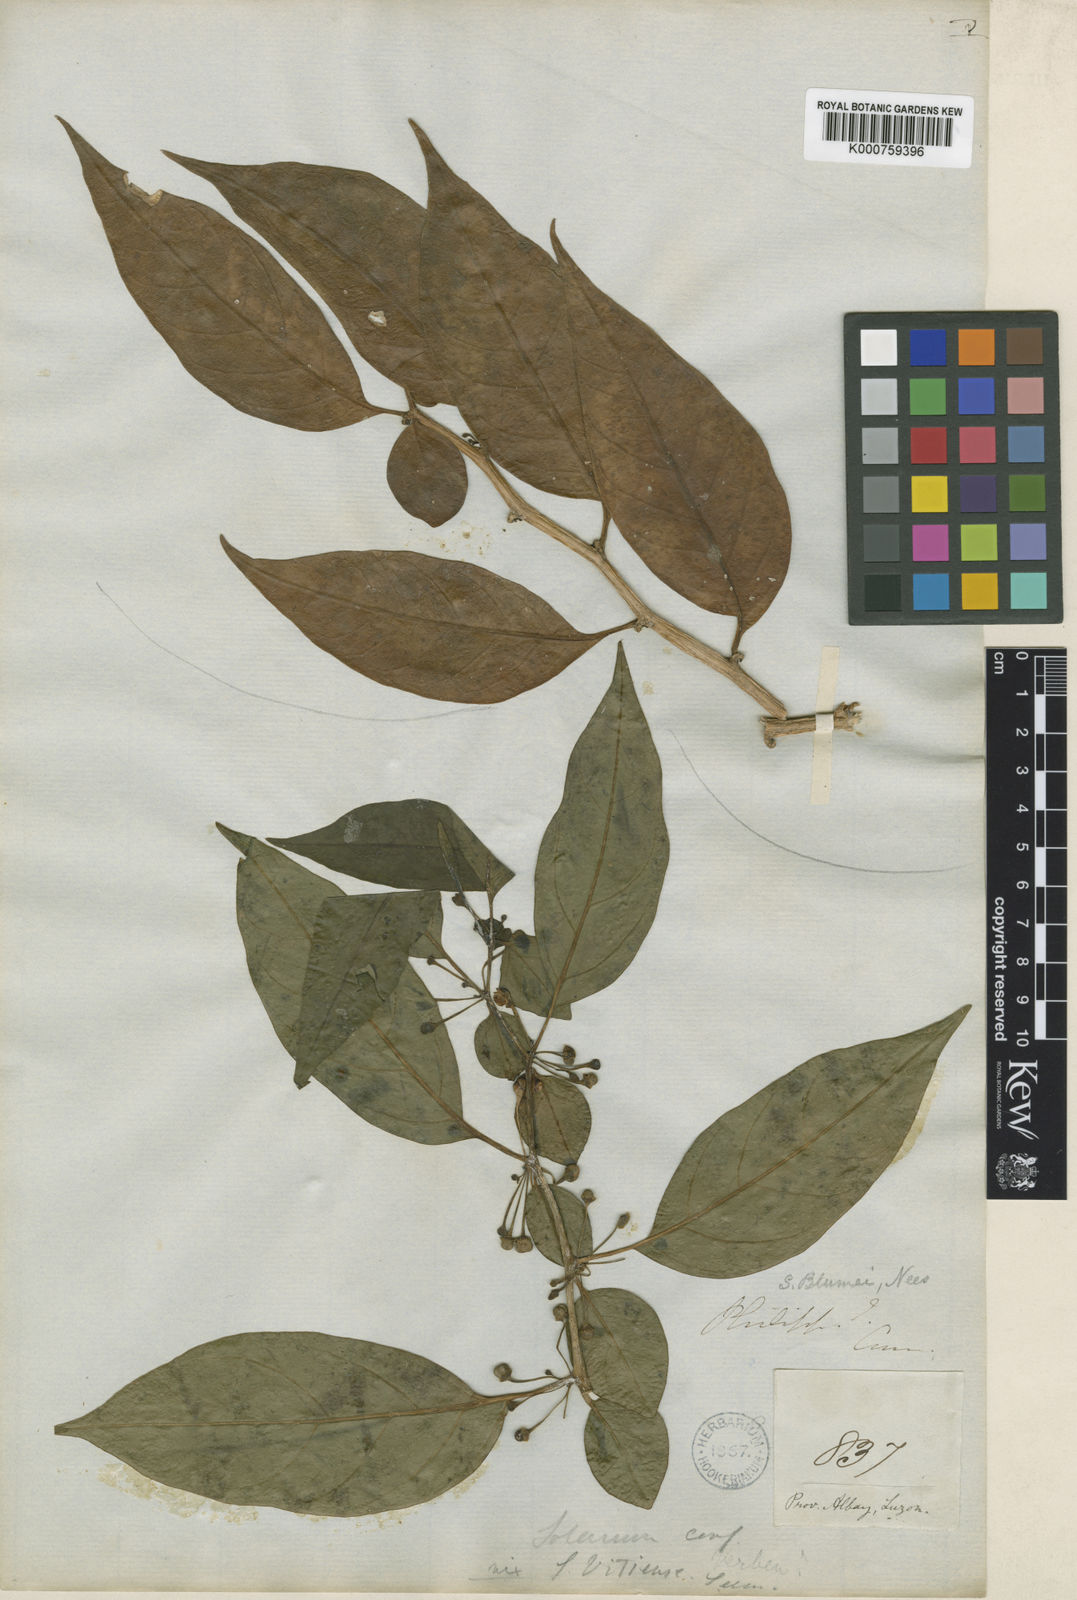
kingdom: Plantae
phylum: Tracheophyta
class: Magnoliopsida
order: Solanales
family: Solanaceae
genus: Lycianthes
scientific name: Lycianthes parasitica
